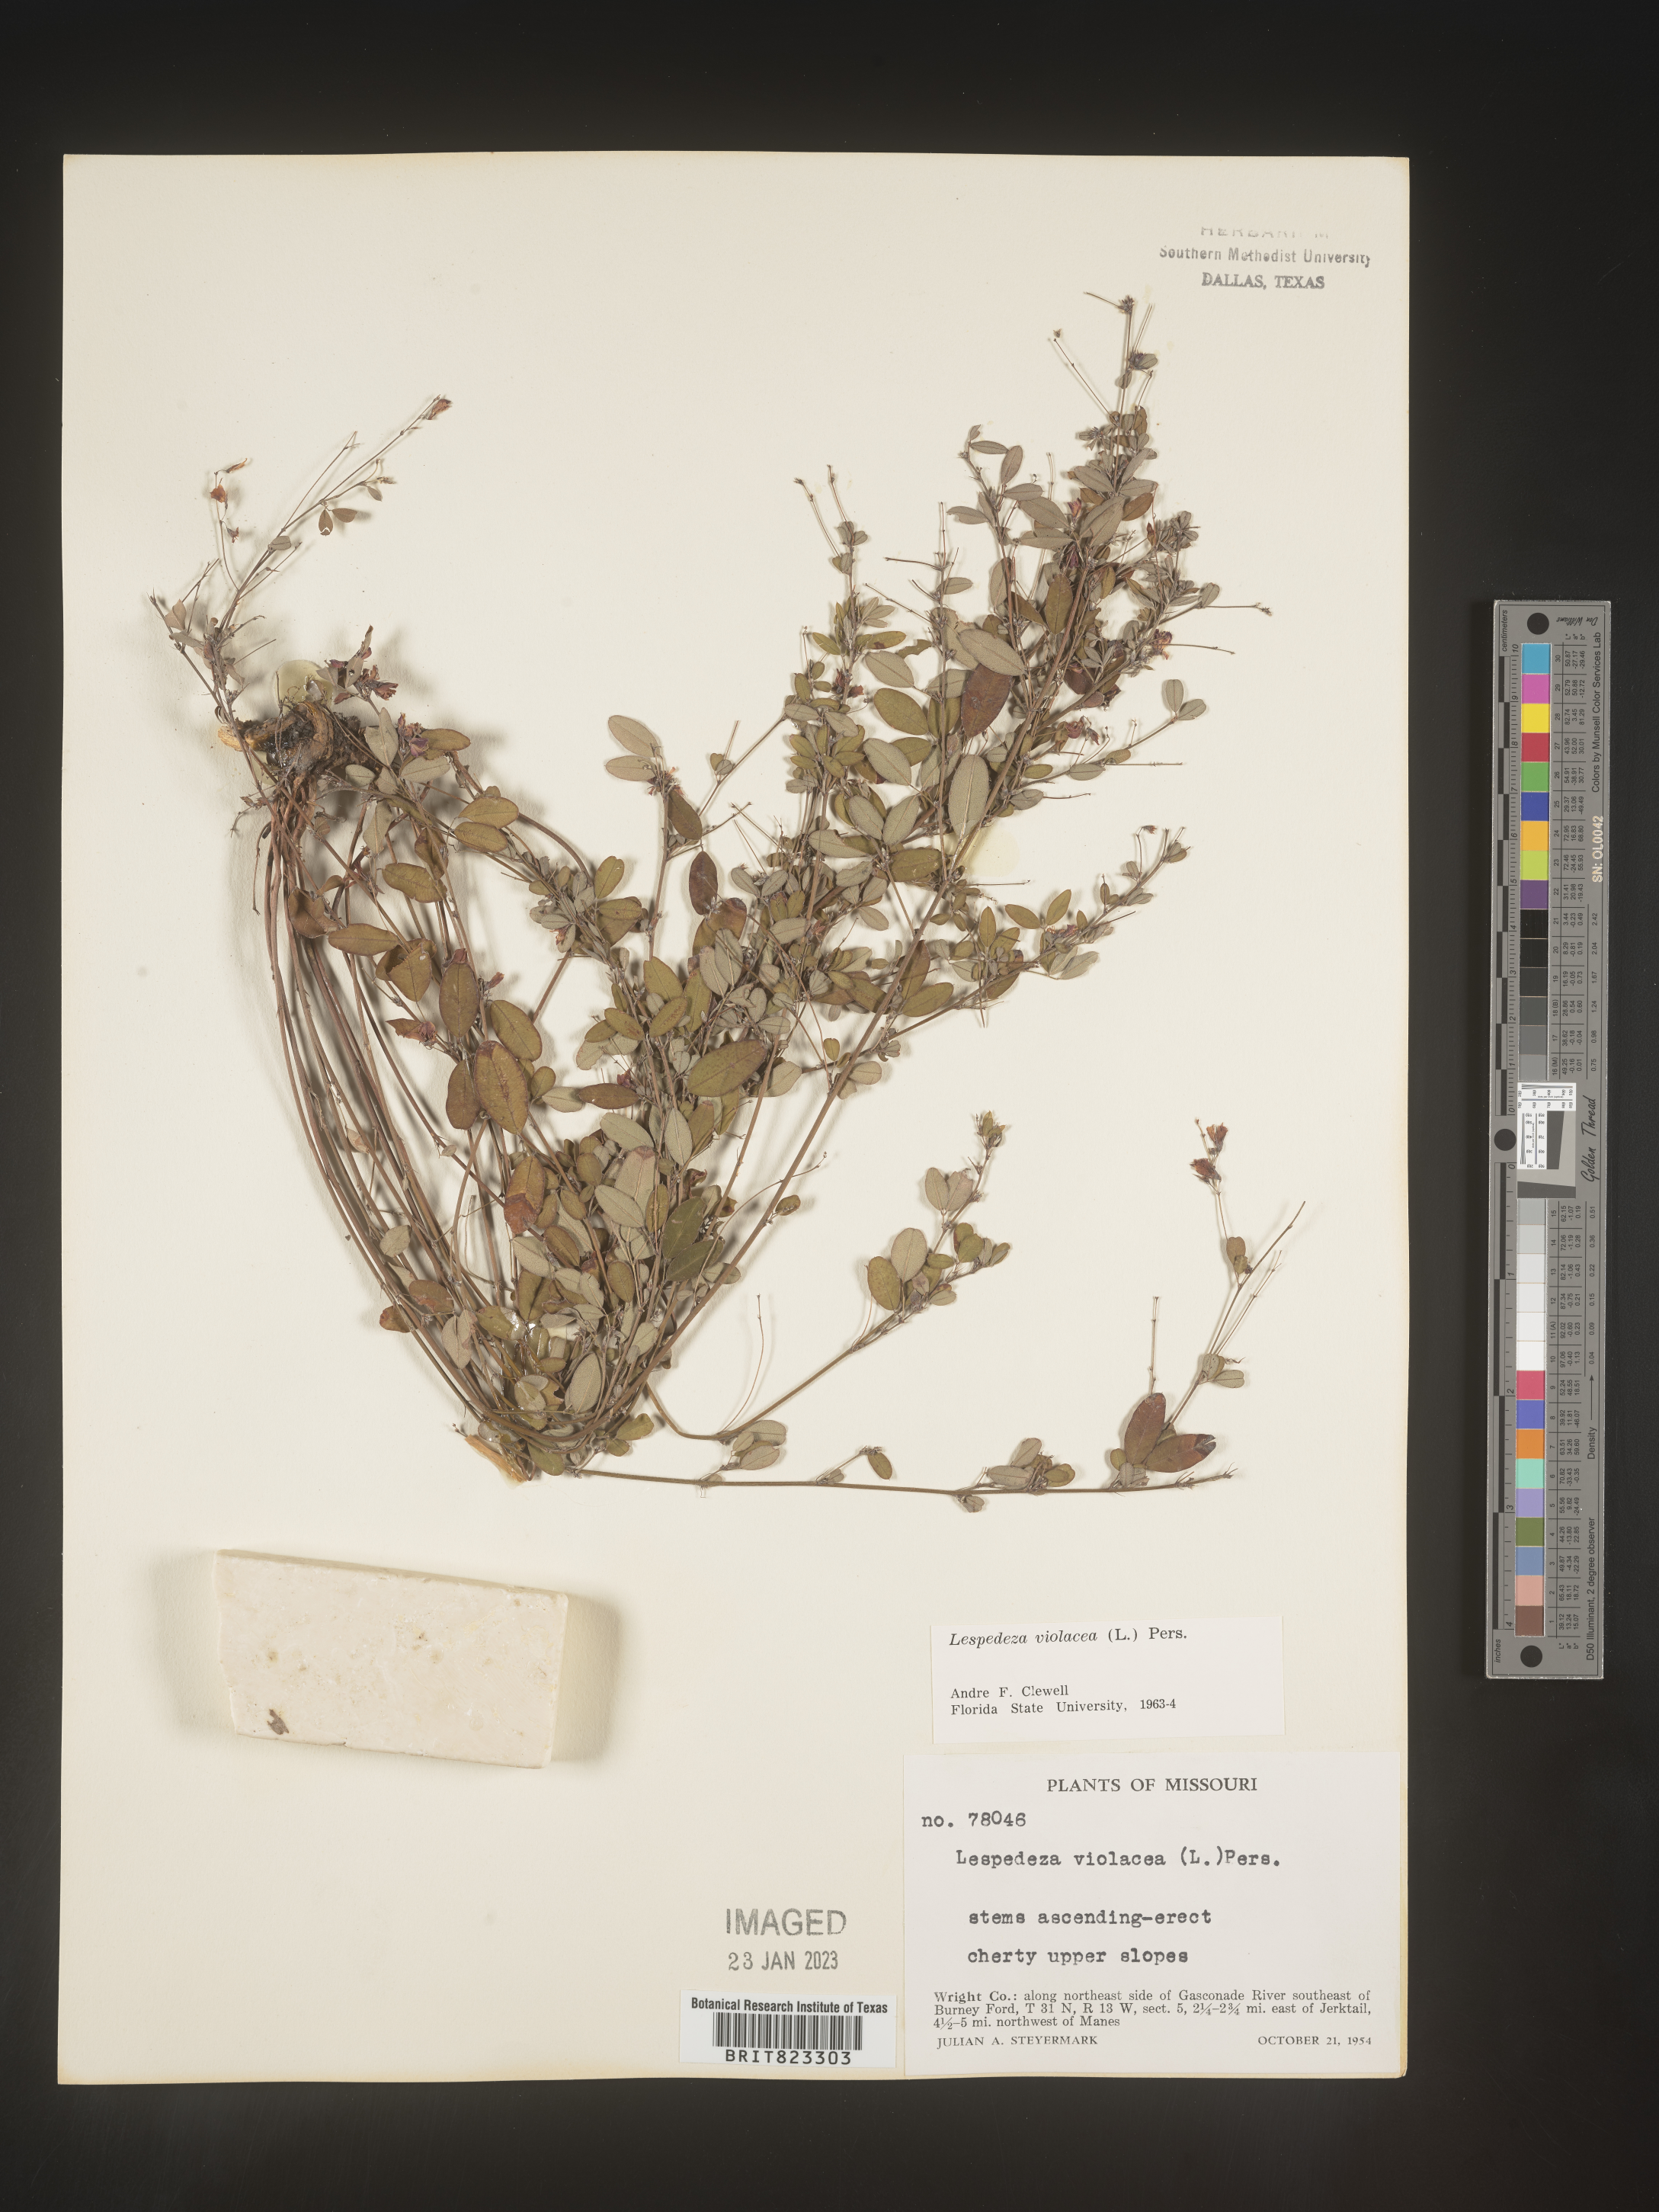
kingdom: Plantae
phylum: Tracheophyta
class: Magnoliopsida
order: Fabales
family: Fabaceae
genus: Lespedeza
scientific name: Lespedeza violacea
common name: Wand bush-clover
